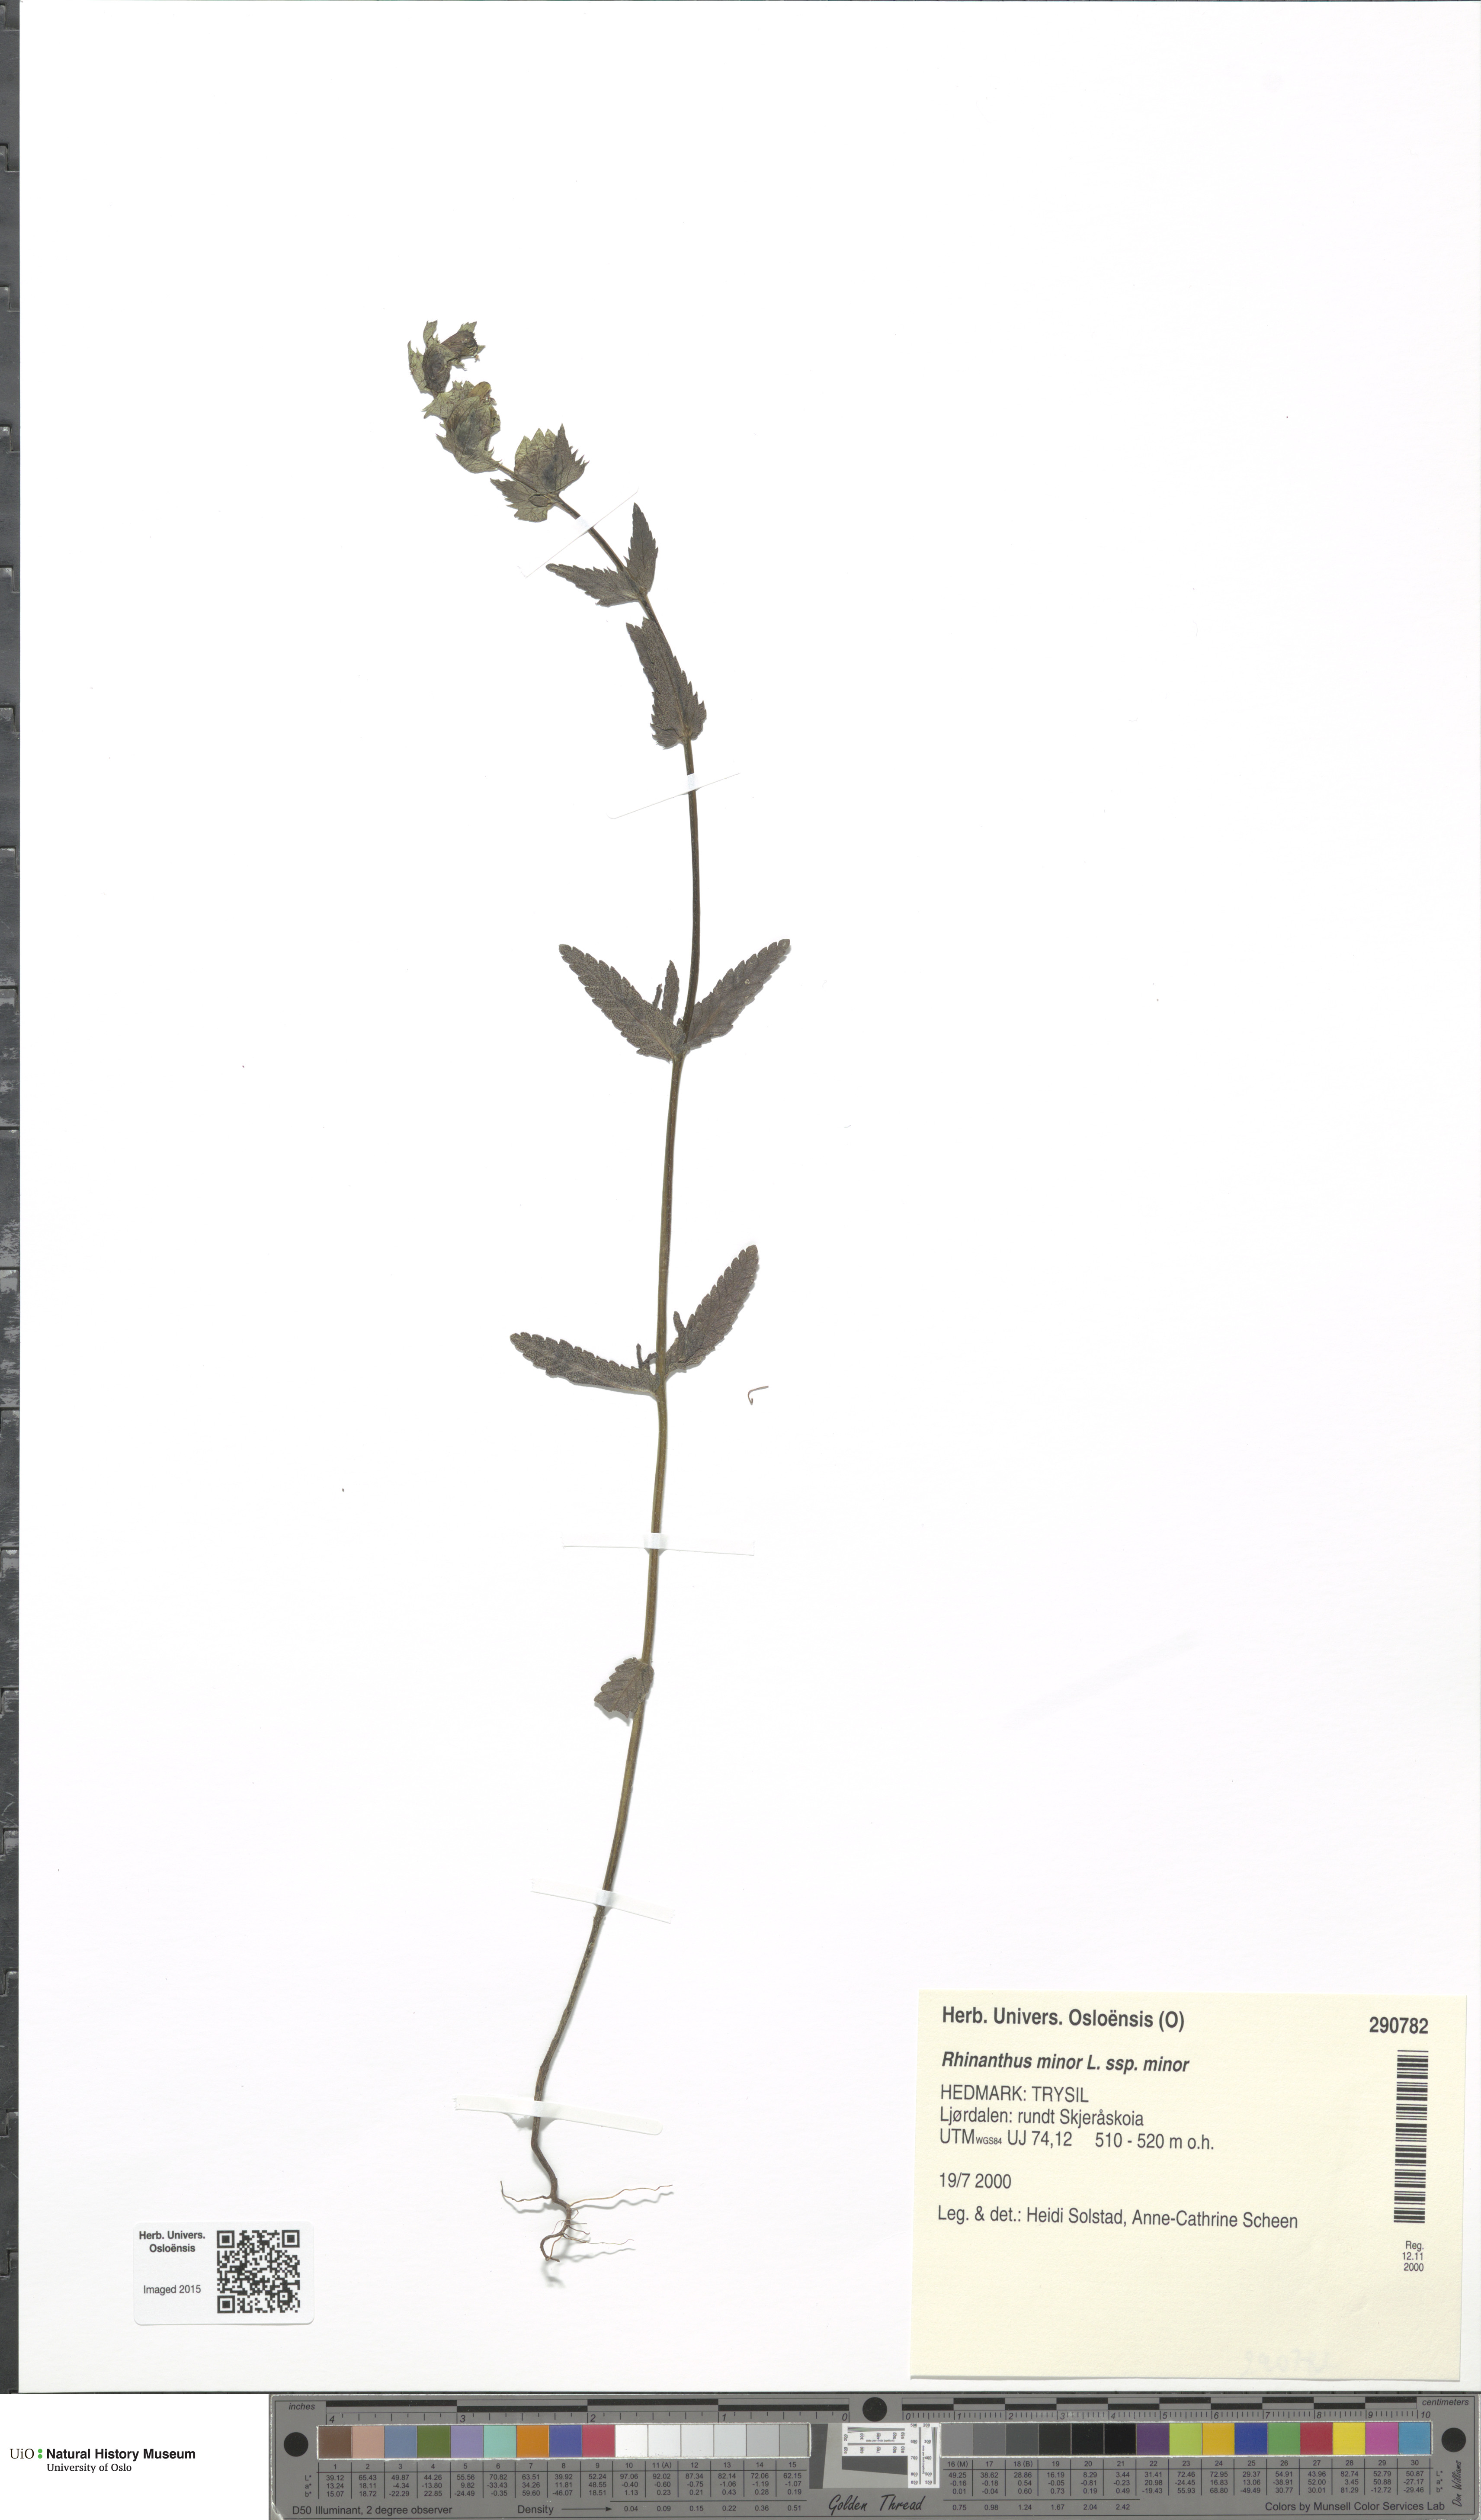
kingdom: Plantae
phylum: Tracheophyta
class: Magnoliopsida
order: Lamiales
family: Orobanchaceae
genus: Rhinanthus
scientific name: Rhinanthus minor
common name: Yellow-rattle
